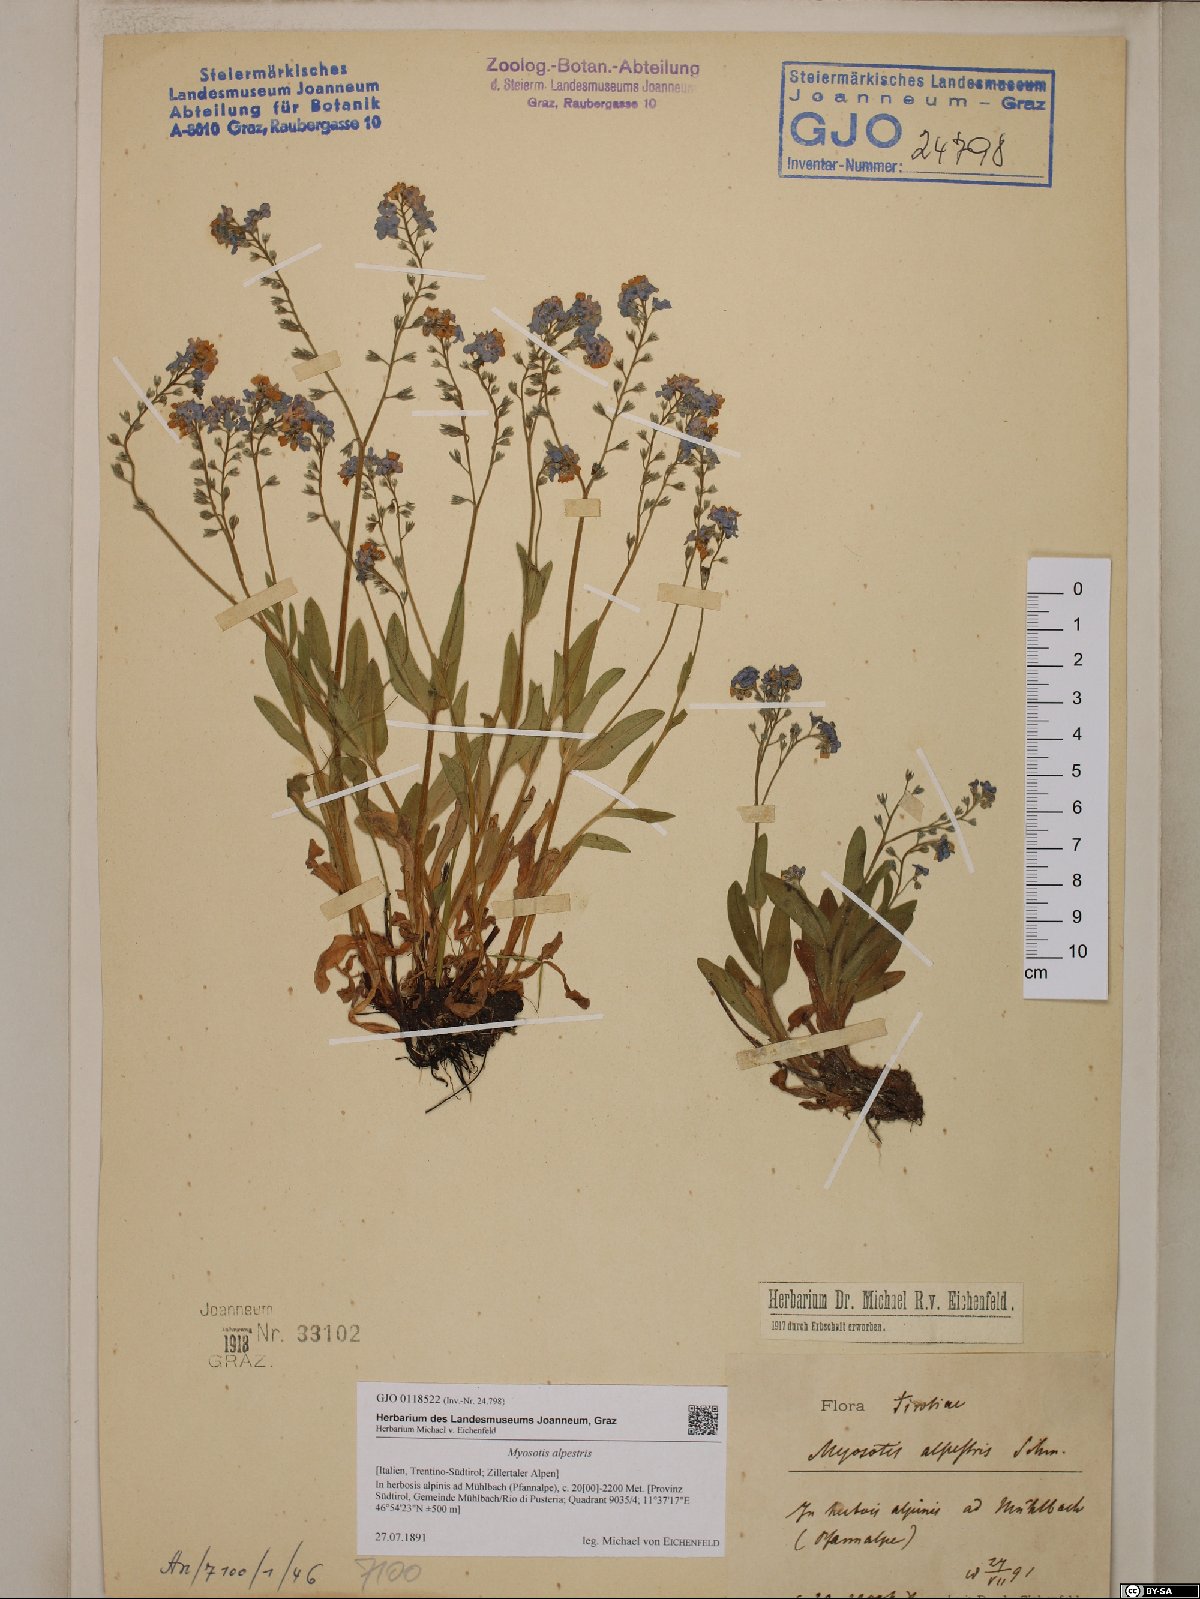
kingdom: Plantae
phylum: Tracheophyta
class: Magnoliopsida
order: Boraginales
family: Boraginaceae
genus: Myosotis
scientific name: Myosotis alpestris
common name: Alpine forget-me-not
